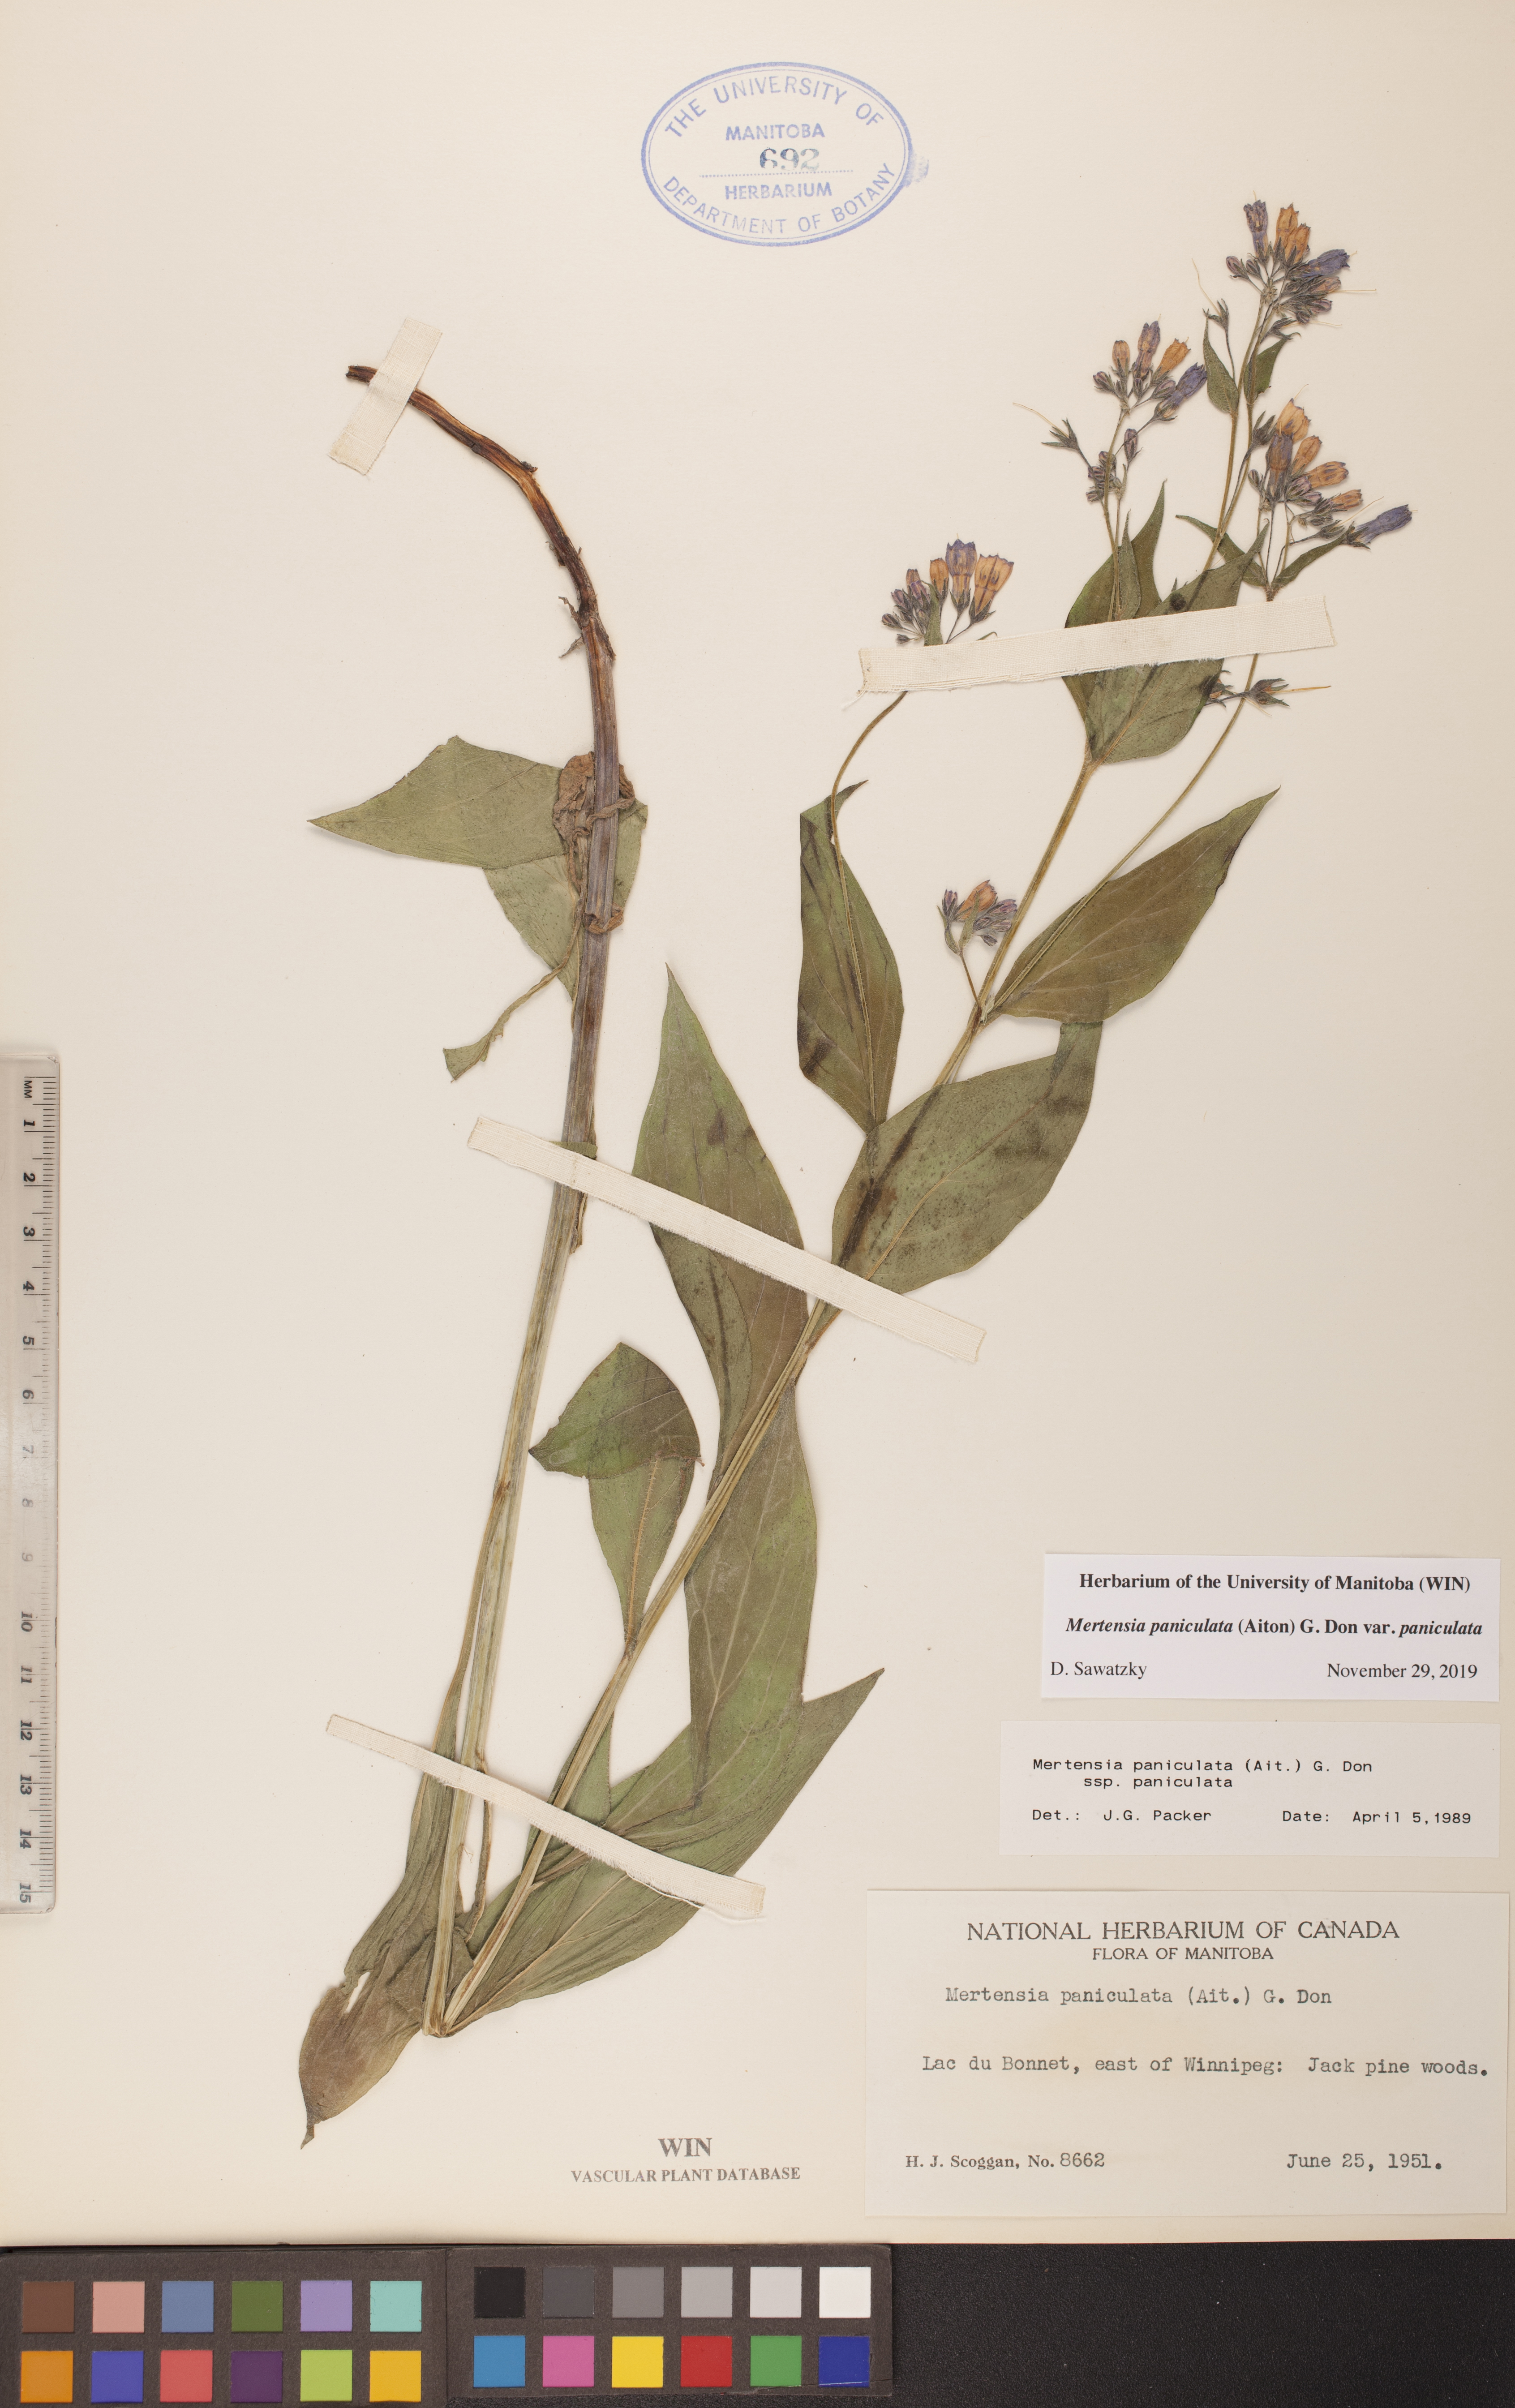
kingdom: Plantae
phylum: Tracheophyta
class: Magnoliopsida
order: Boraginales
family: Boraginaceae
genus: Mertensia
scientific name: Mertensia paniculata
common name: Panicled bluebells
